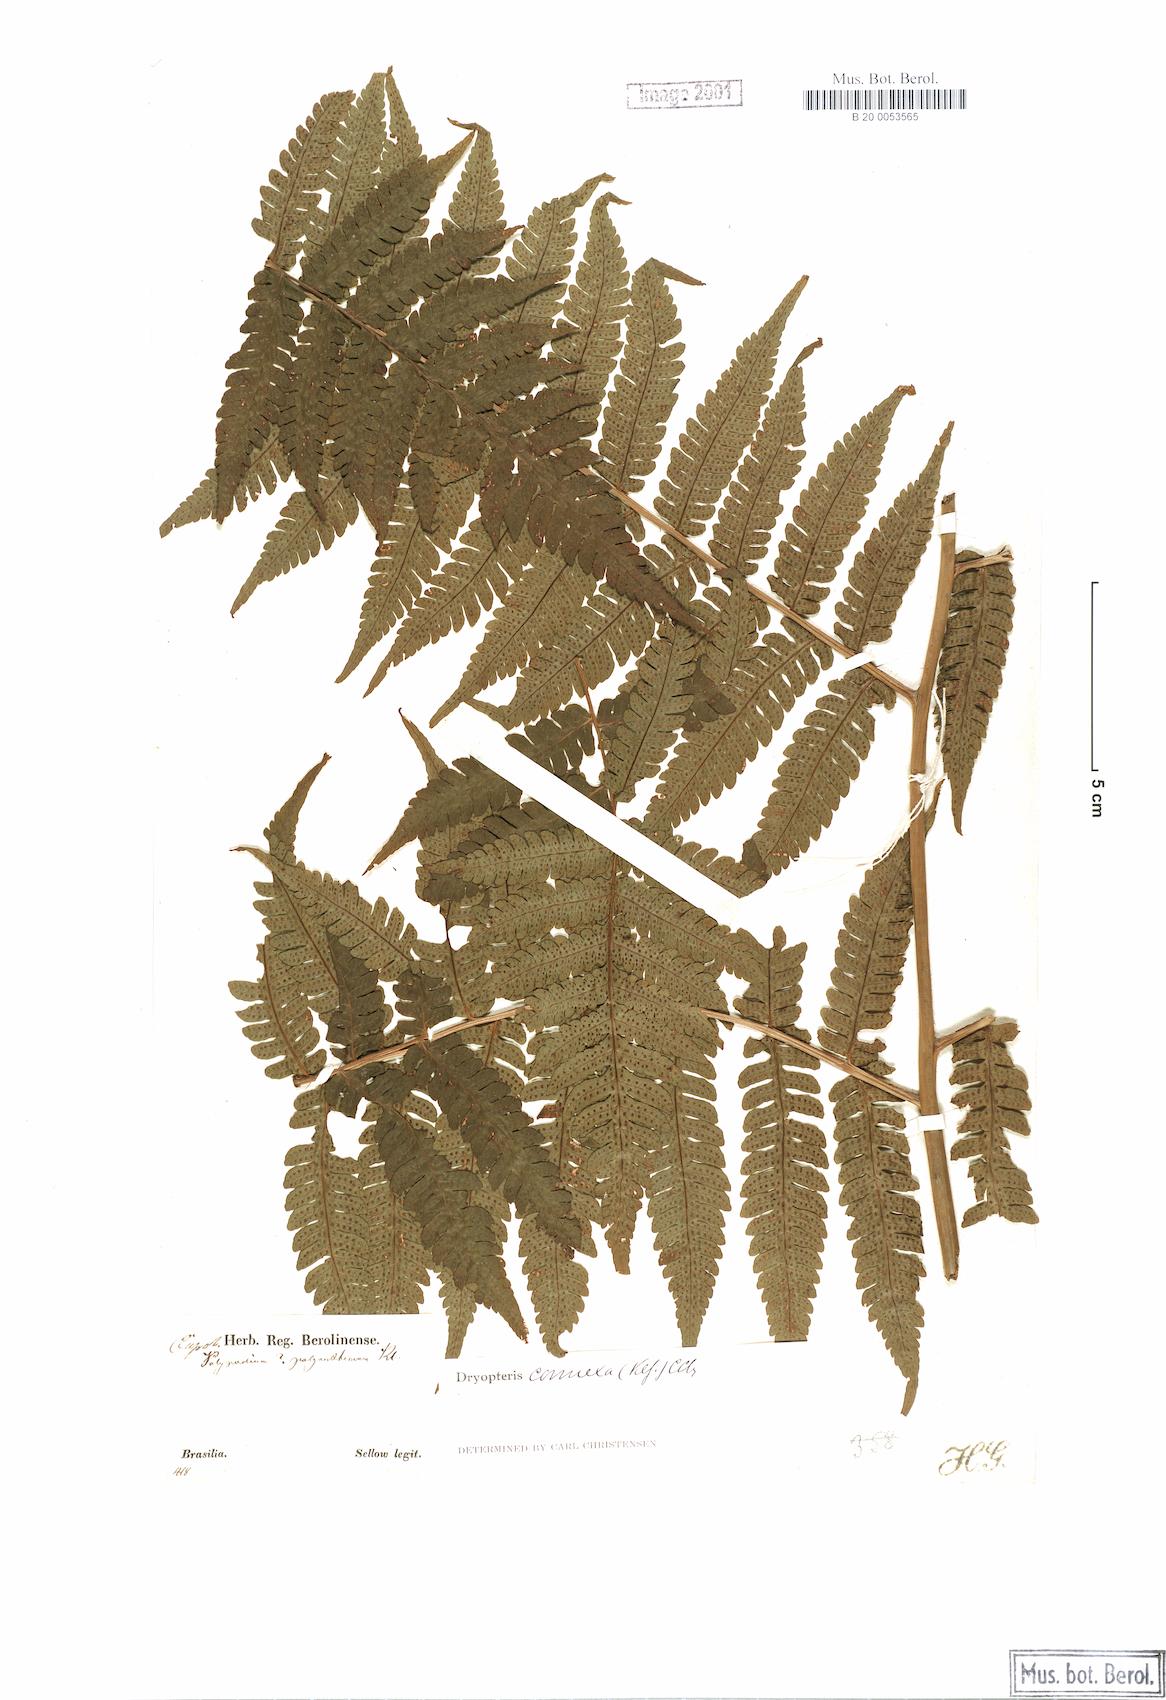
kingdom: Plantae
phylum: Tracheophyta
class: Polypodiopsida
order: Polypodiales
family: Dryopteridaceae
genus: Megalastrum
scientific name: Megalastrum connexum
